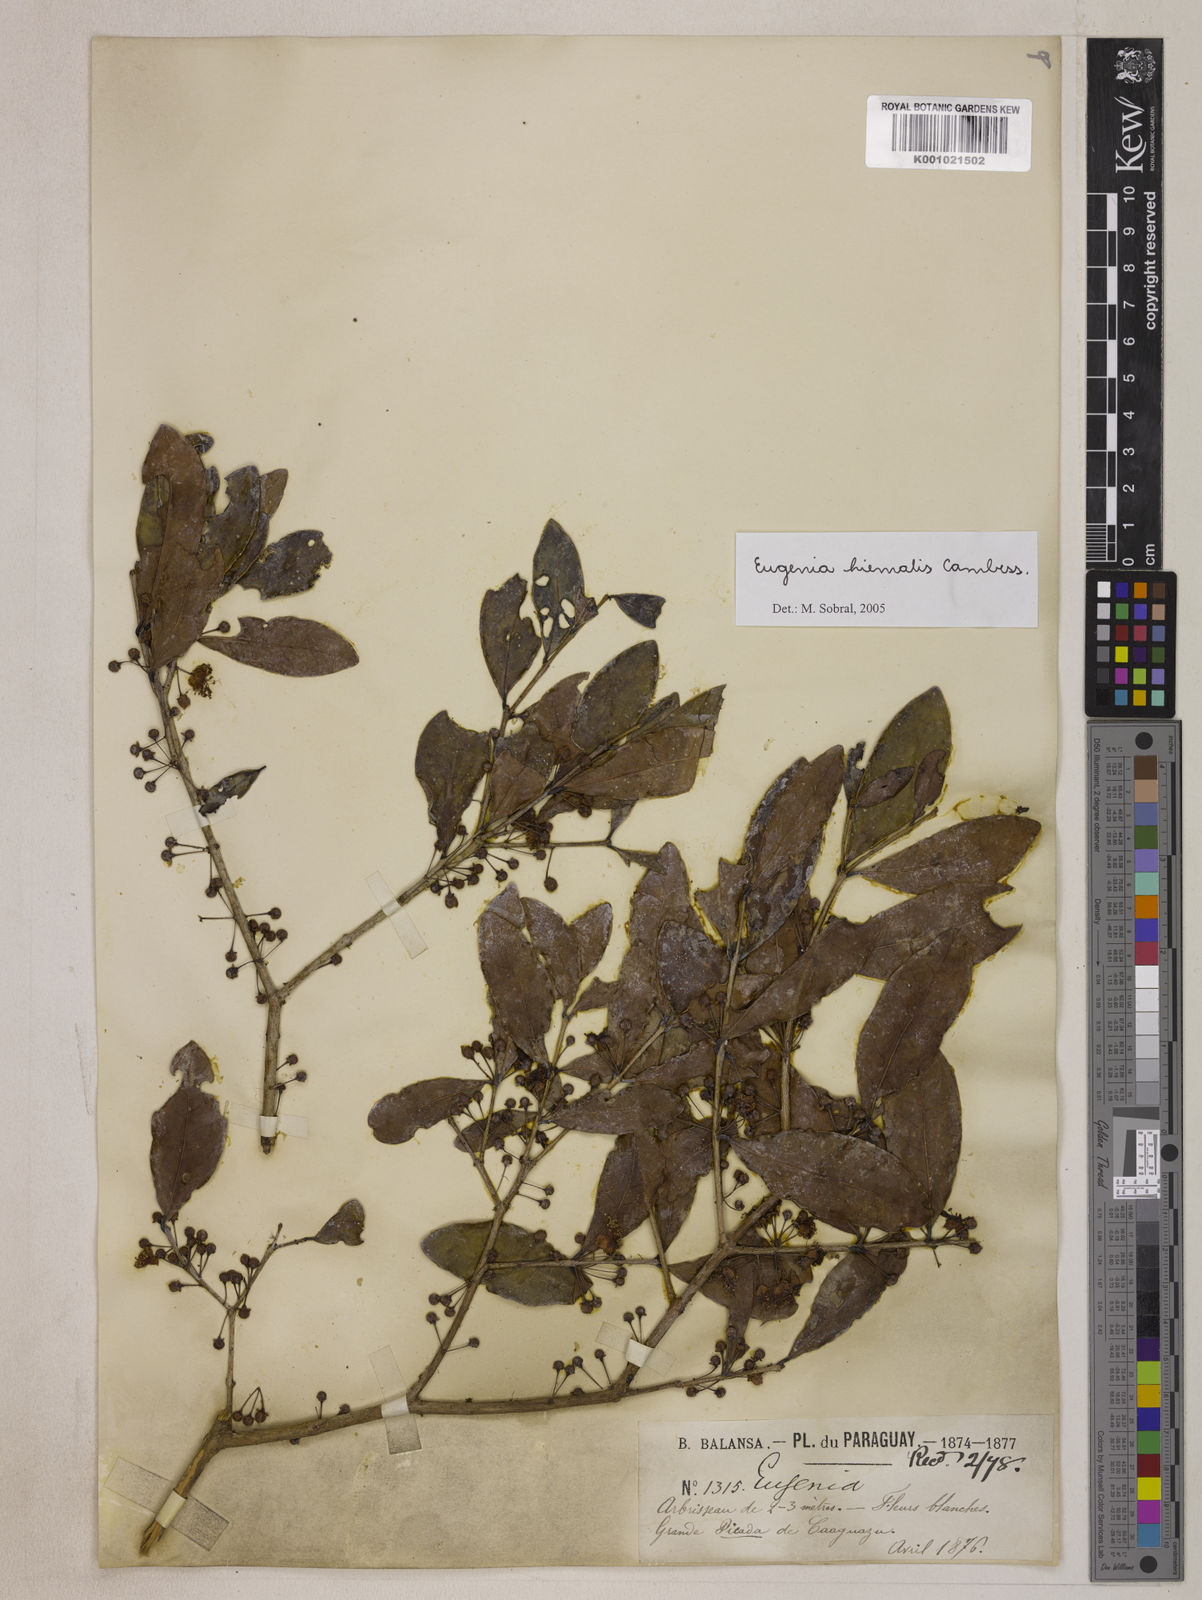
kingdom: Plantae
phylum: Tracheophyta
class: Magnoliopsida
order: Myrtales
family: Myrtaceae
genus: Eugenia
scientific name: Eugenia hiemalis
